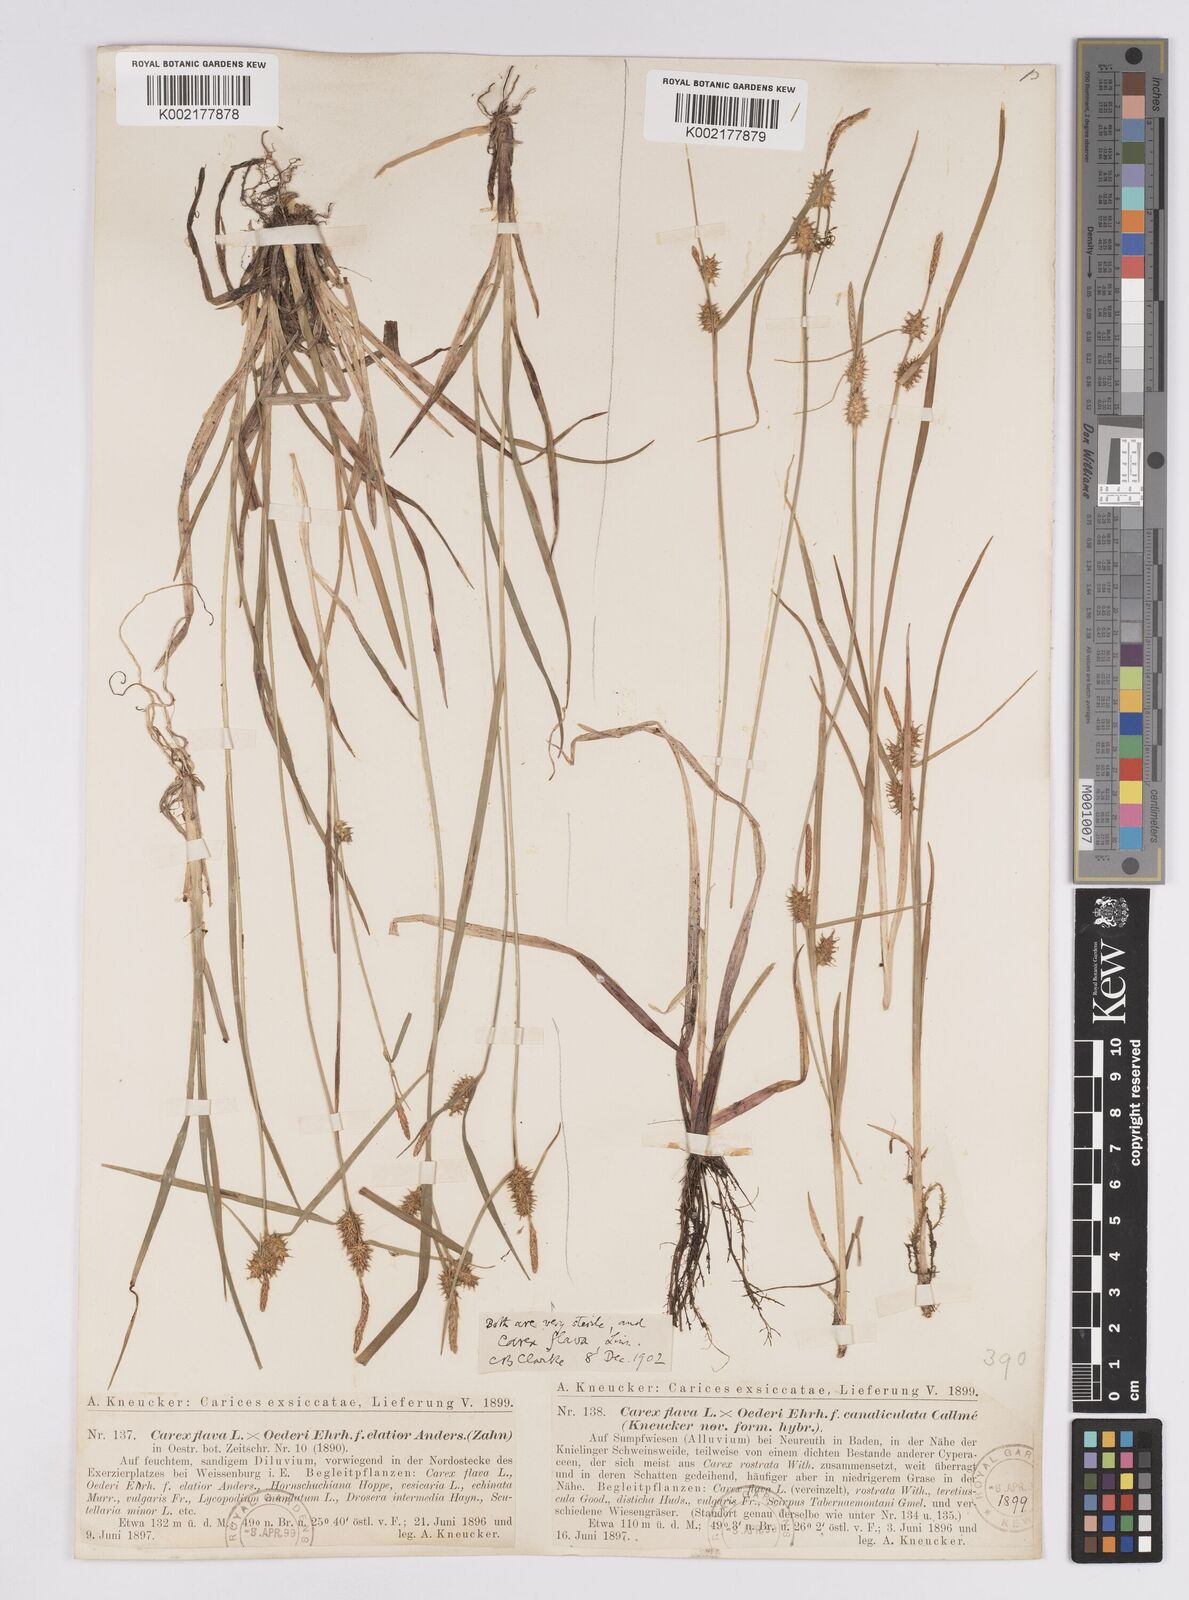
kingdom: Plantae
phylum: Tracheophyta
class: Liliopsida
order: Poales
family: Cyperaceae
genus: Carex
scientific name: Carex flava
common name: Large yellow-sedge
